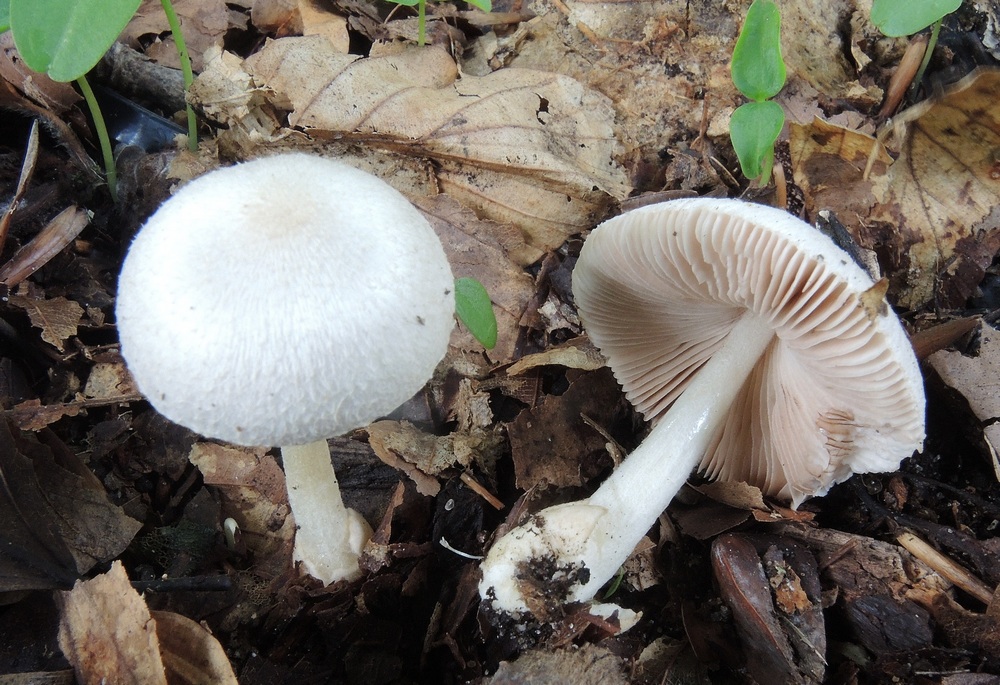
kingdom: Fungi
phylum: Basidiomycota
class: Agaricomycetes
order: Agaricales
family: Pluteaceae
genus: Volvariella
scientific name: Volvariella hypopithys
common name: dunstokket posesvamp
